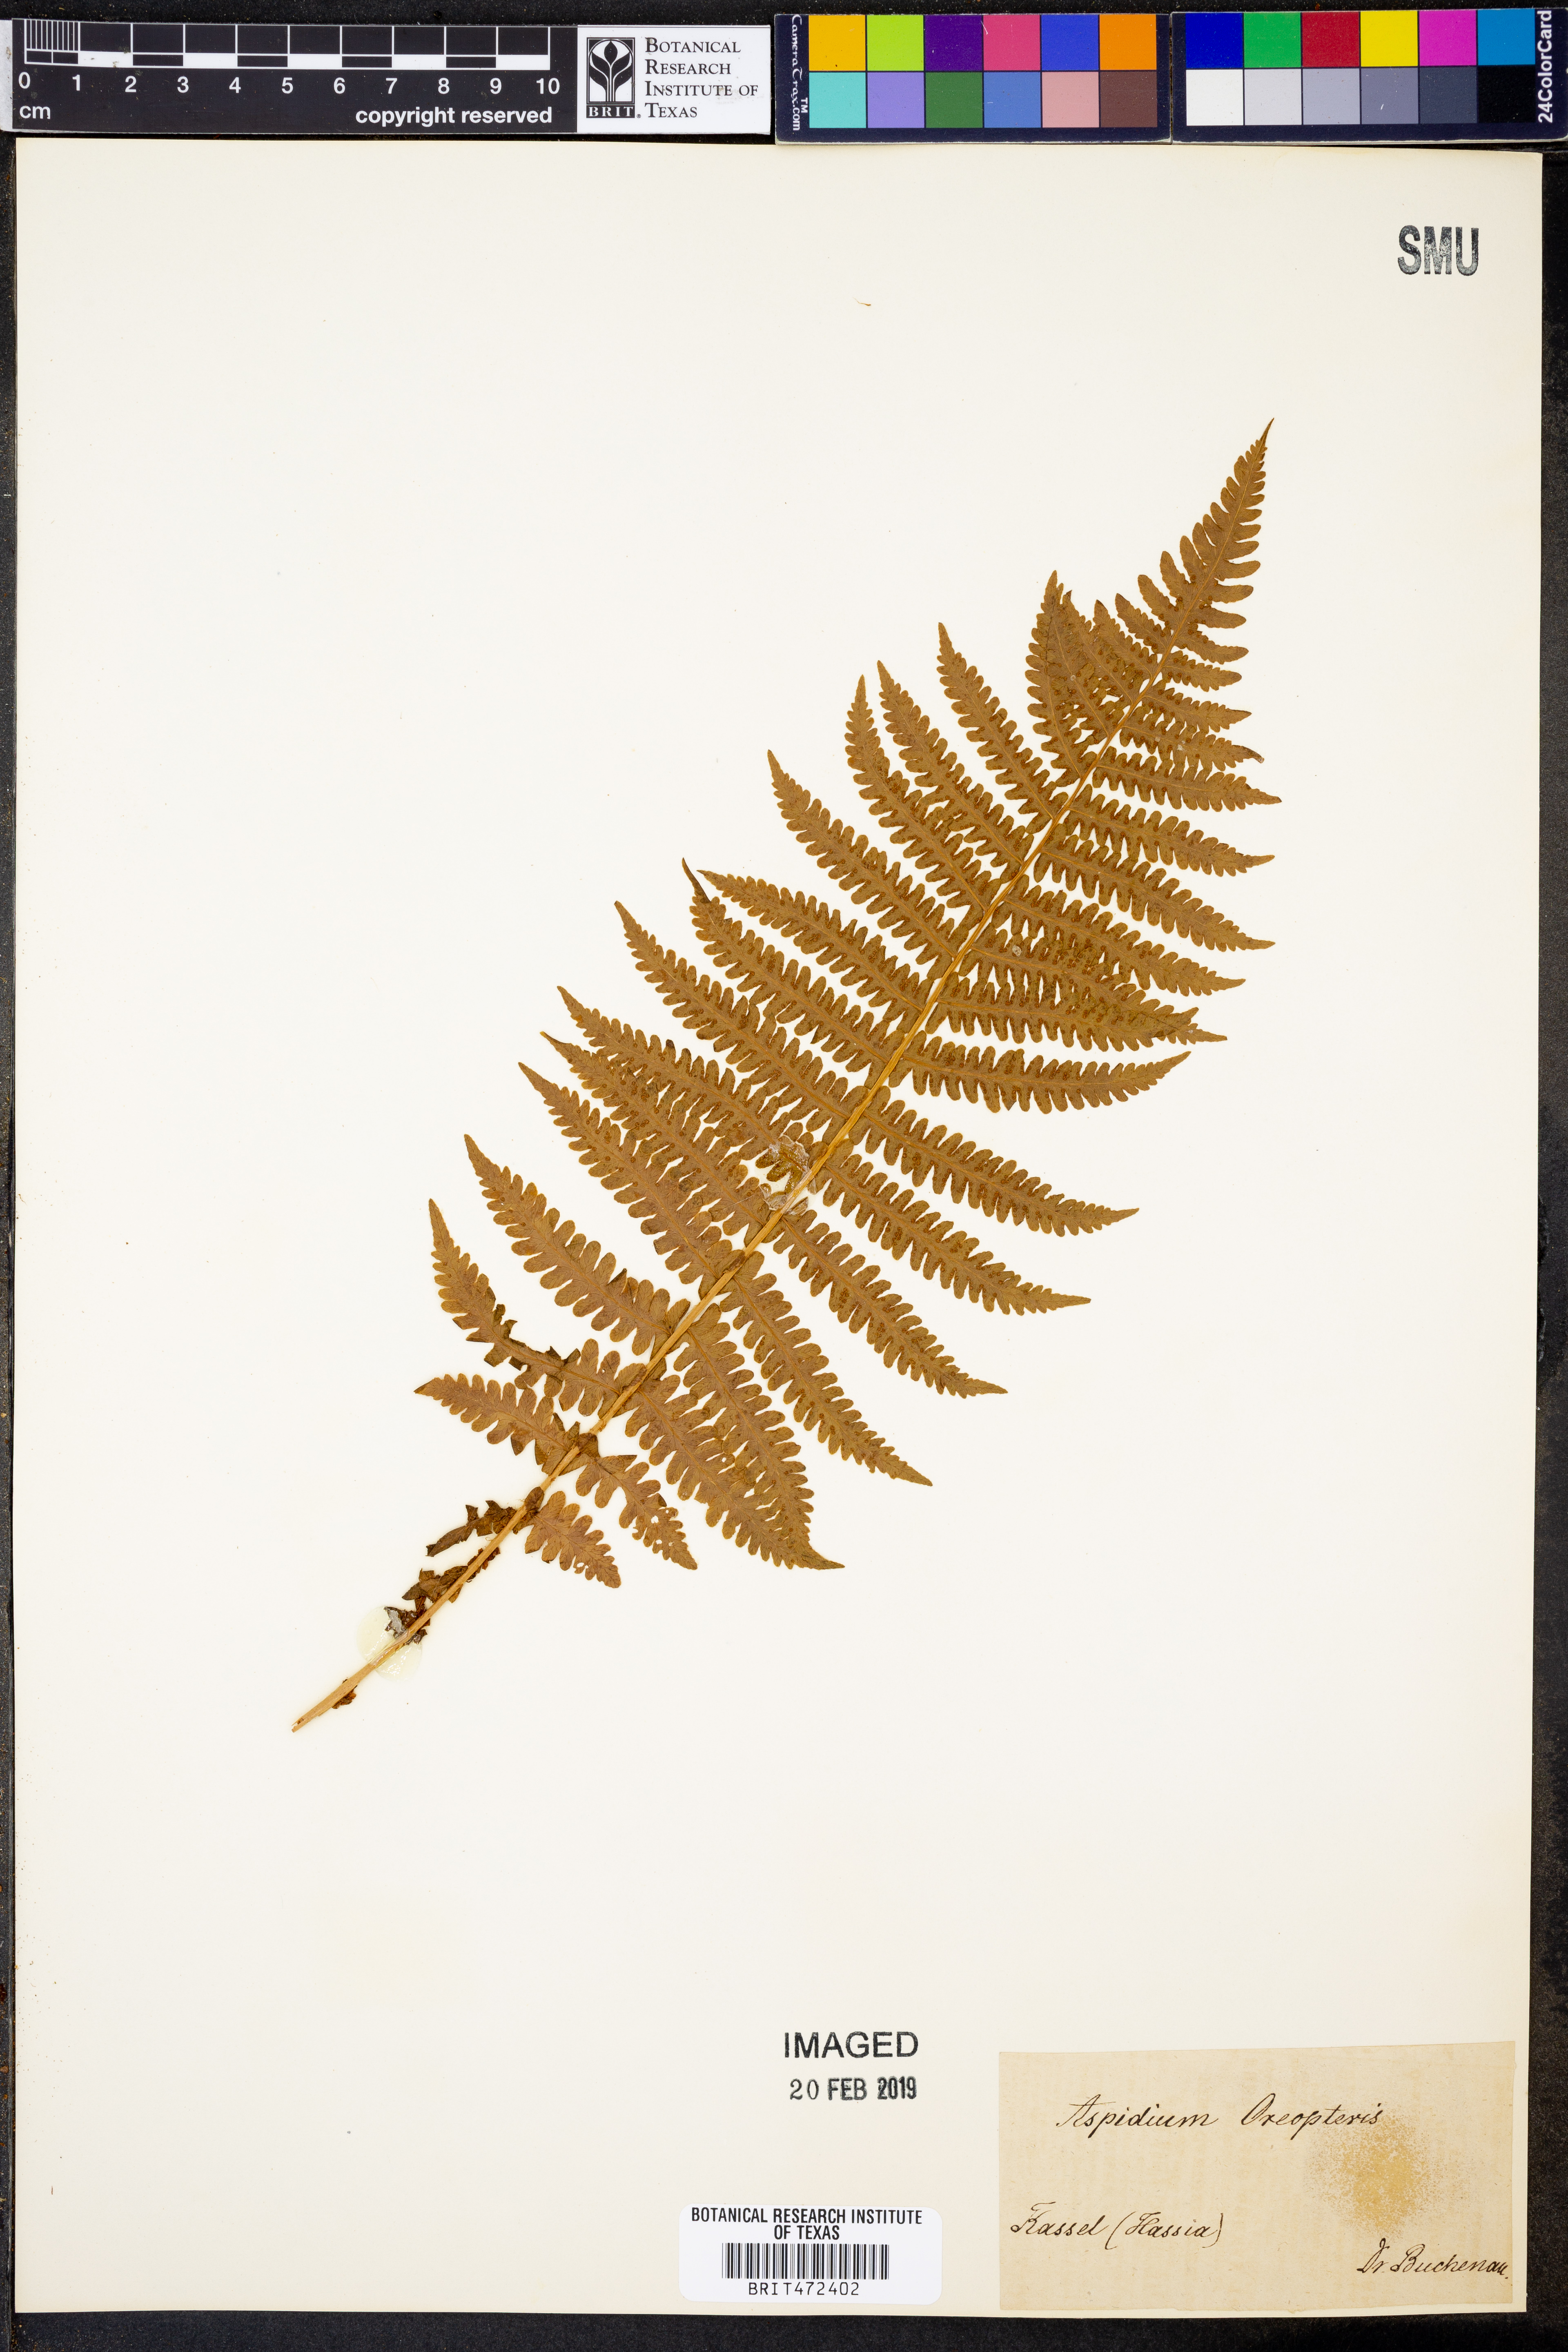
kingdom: Plantae
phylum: Tracheophyta
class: Polypodiopsida
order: Polypodiales
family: Thelypteridaceae
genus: Oreopteris
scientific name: Oreopteris limbosperma
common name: Lemon-scented fern
